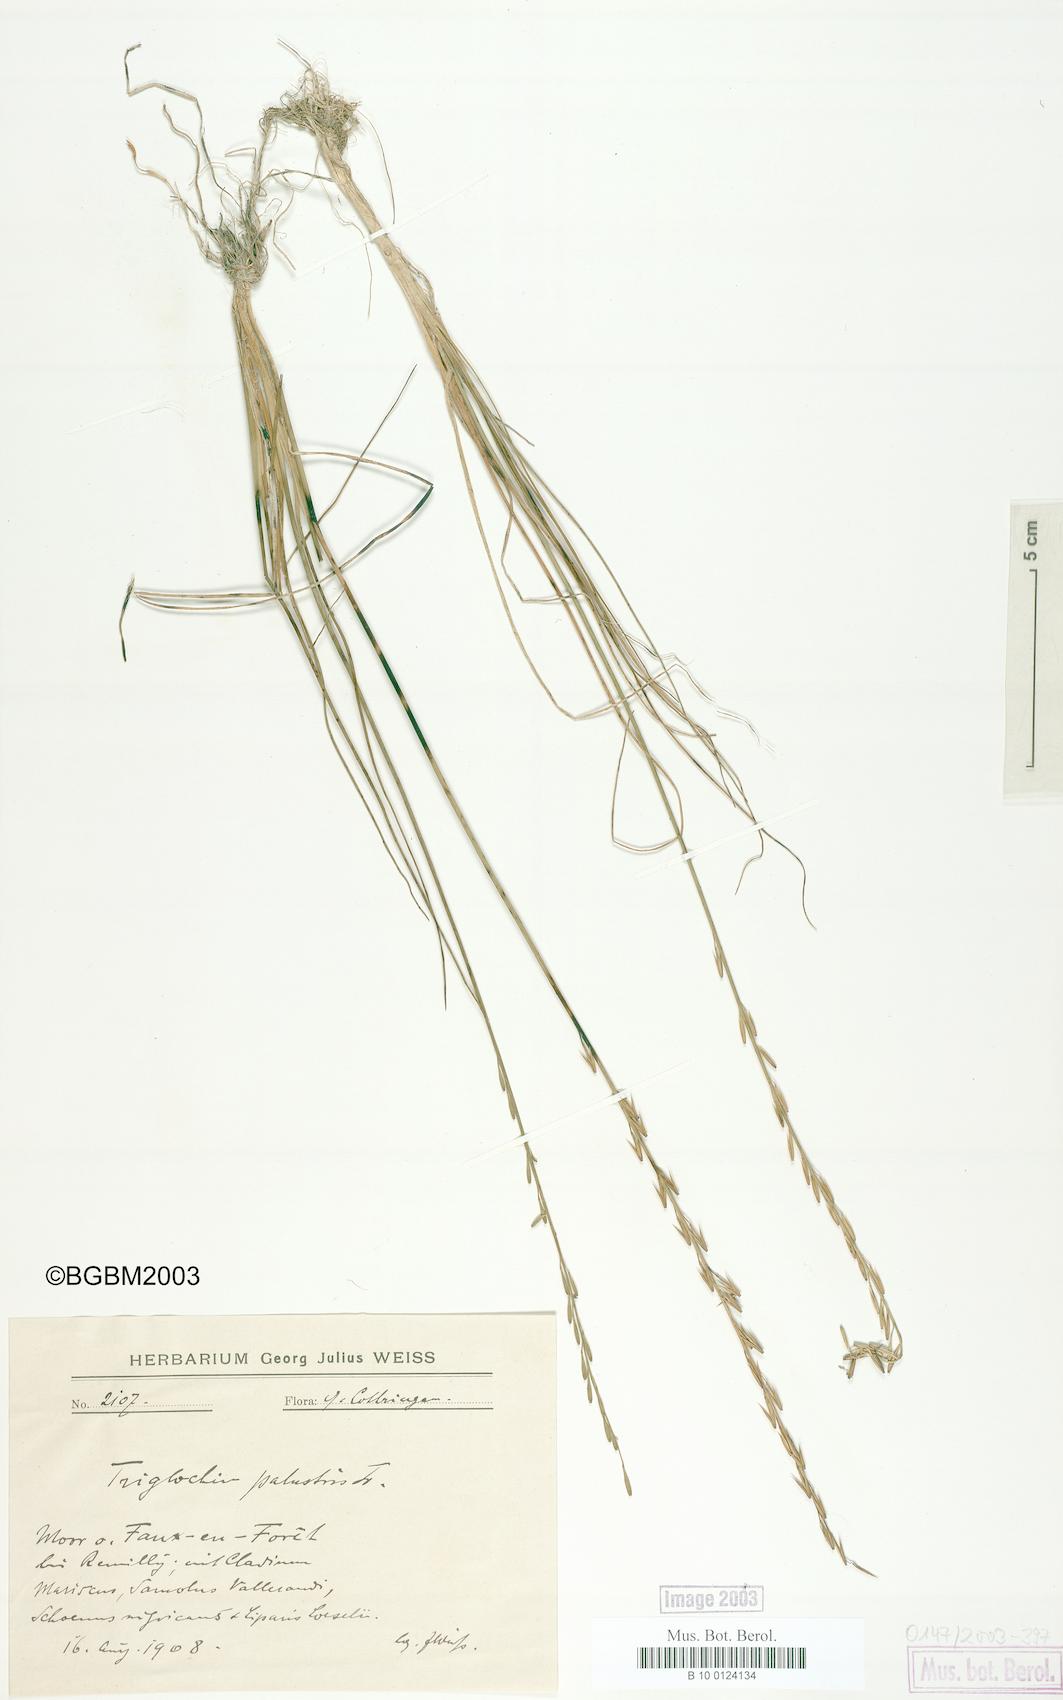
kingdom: Plantae
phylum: Tracheophyta
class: Liliopsida
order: Alismatales
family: Juncaginaceae
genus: Triglochin
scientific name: Triglochin palustris
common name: Marsh arrowgrass
